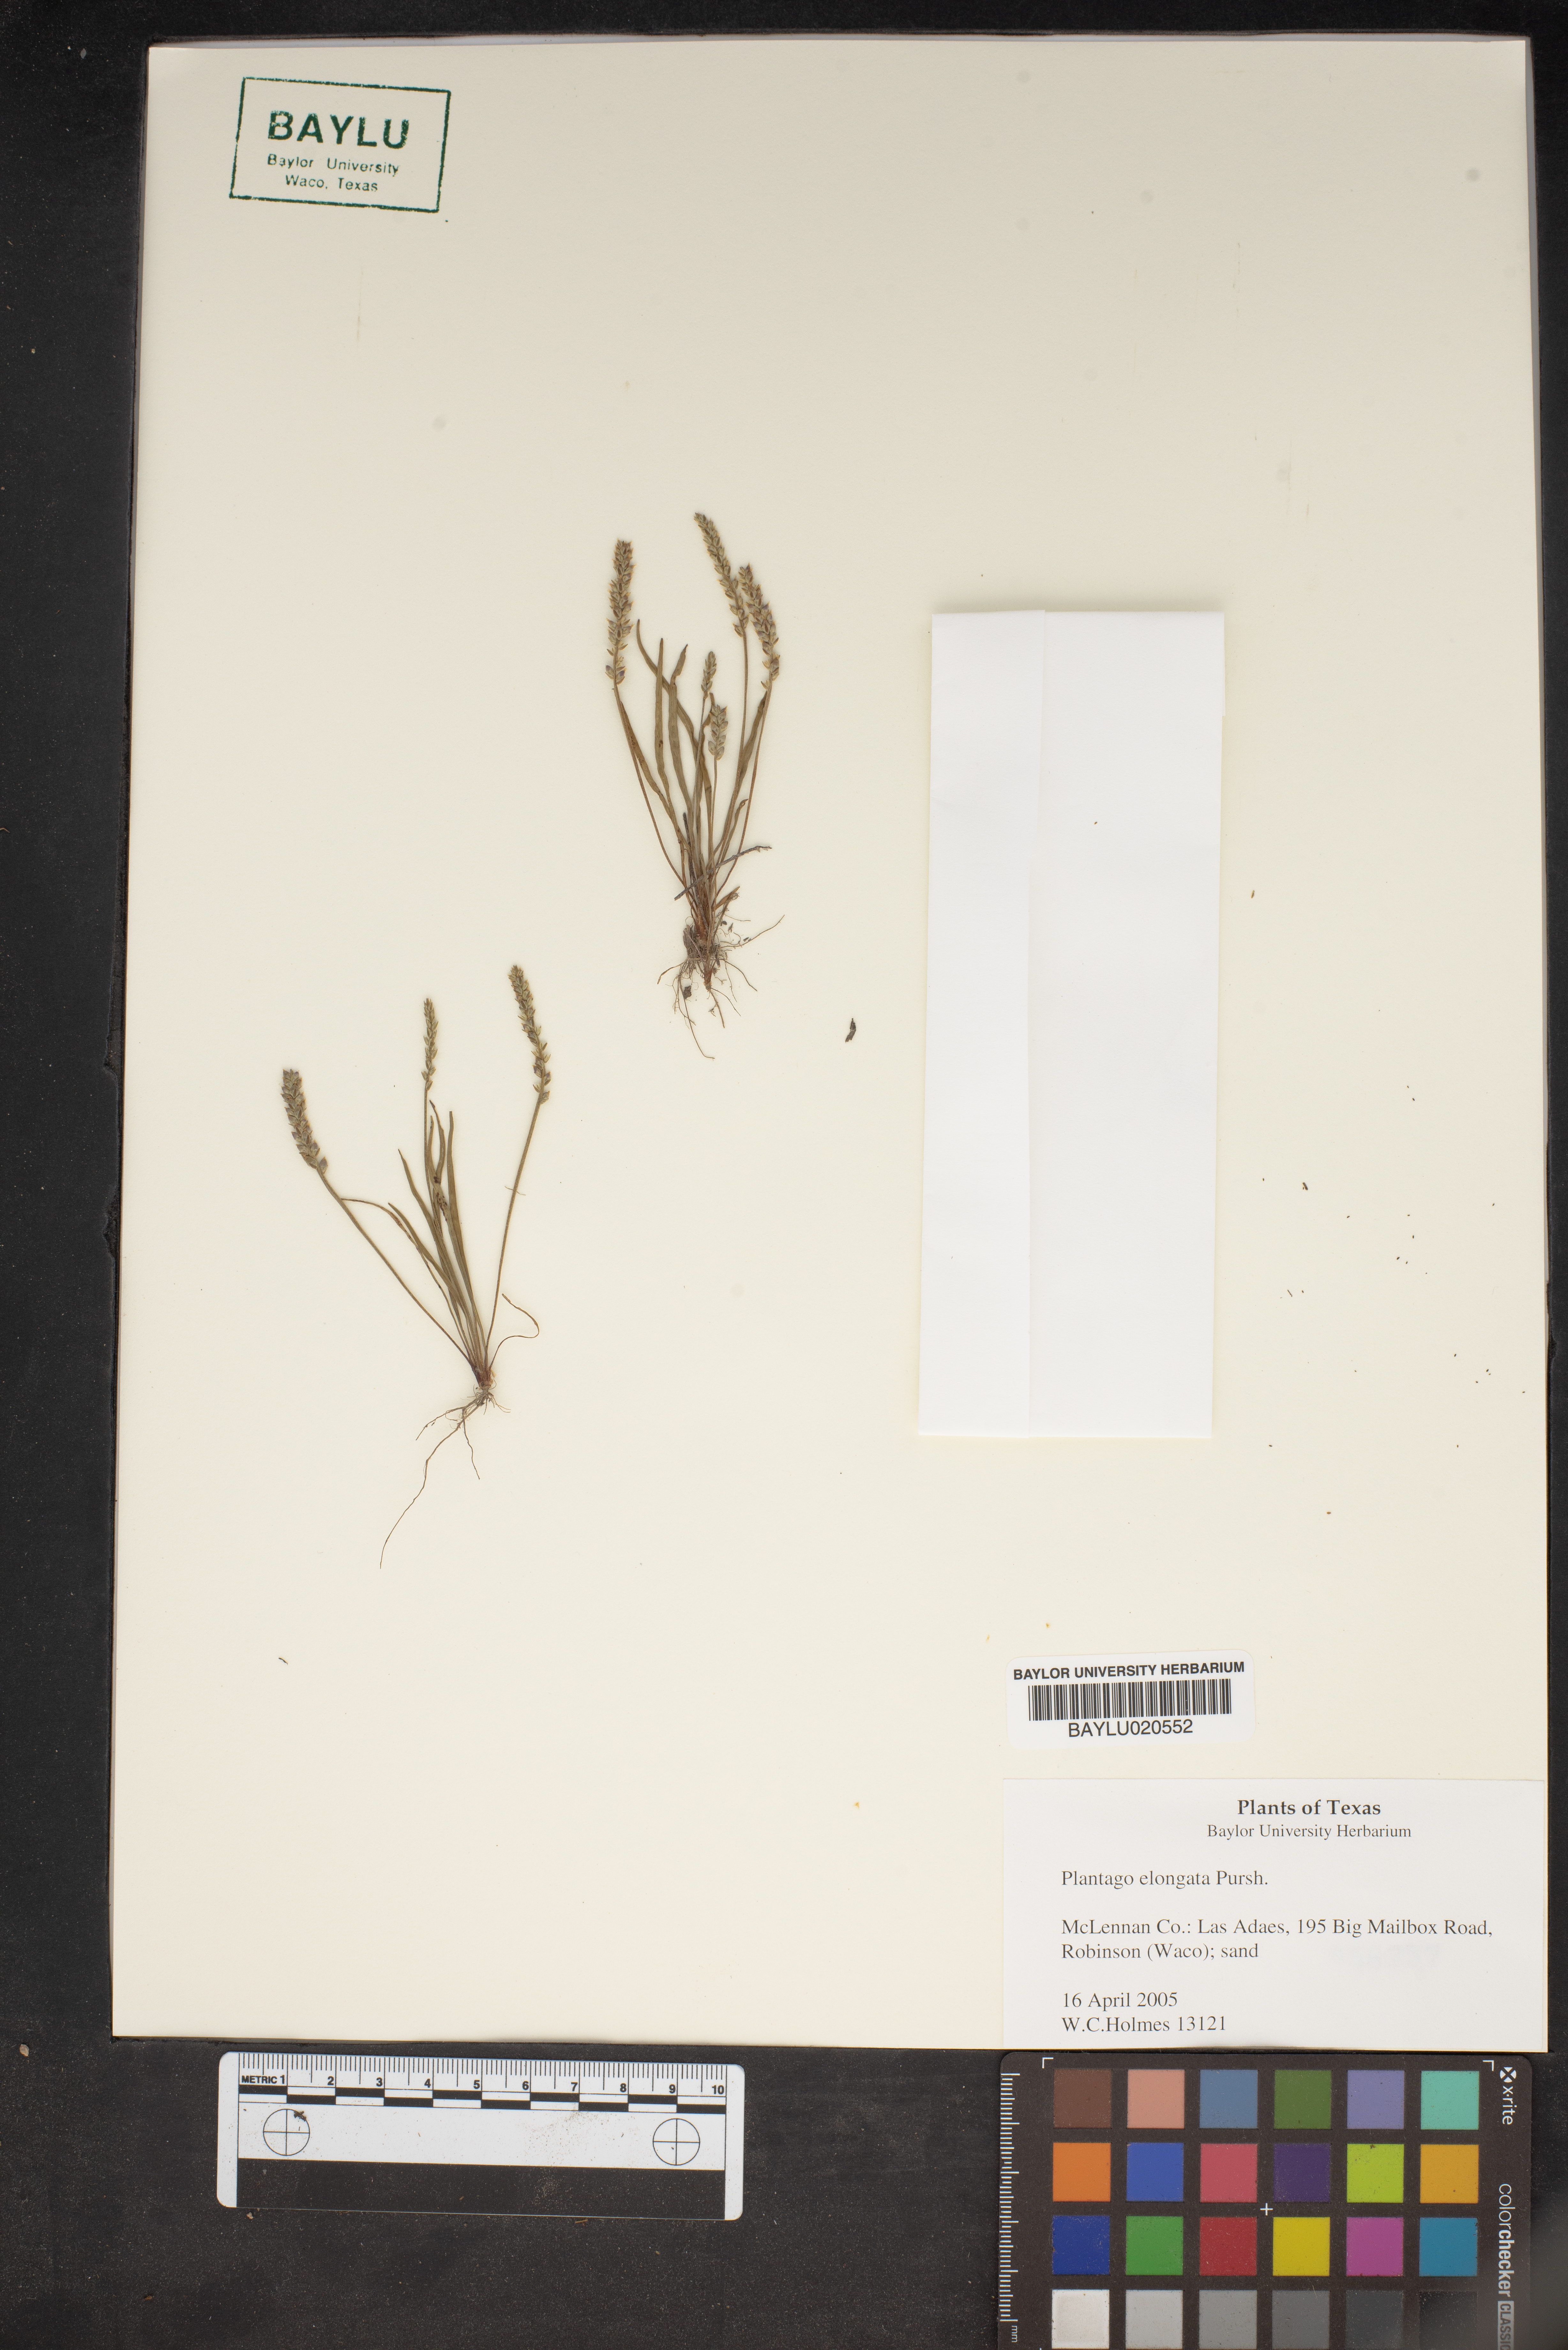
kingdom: Plantae
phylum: Tracheophyta
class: Magnoliopsida
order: Lamiales
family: Plantaginaceae
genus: Plantago
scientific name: Plantago elongata
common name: Linear-leaved plantain
